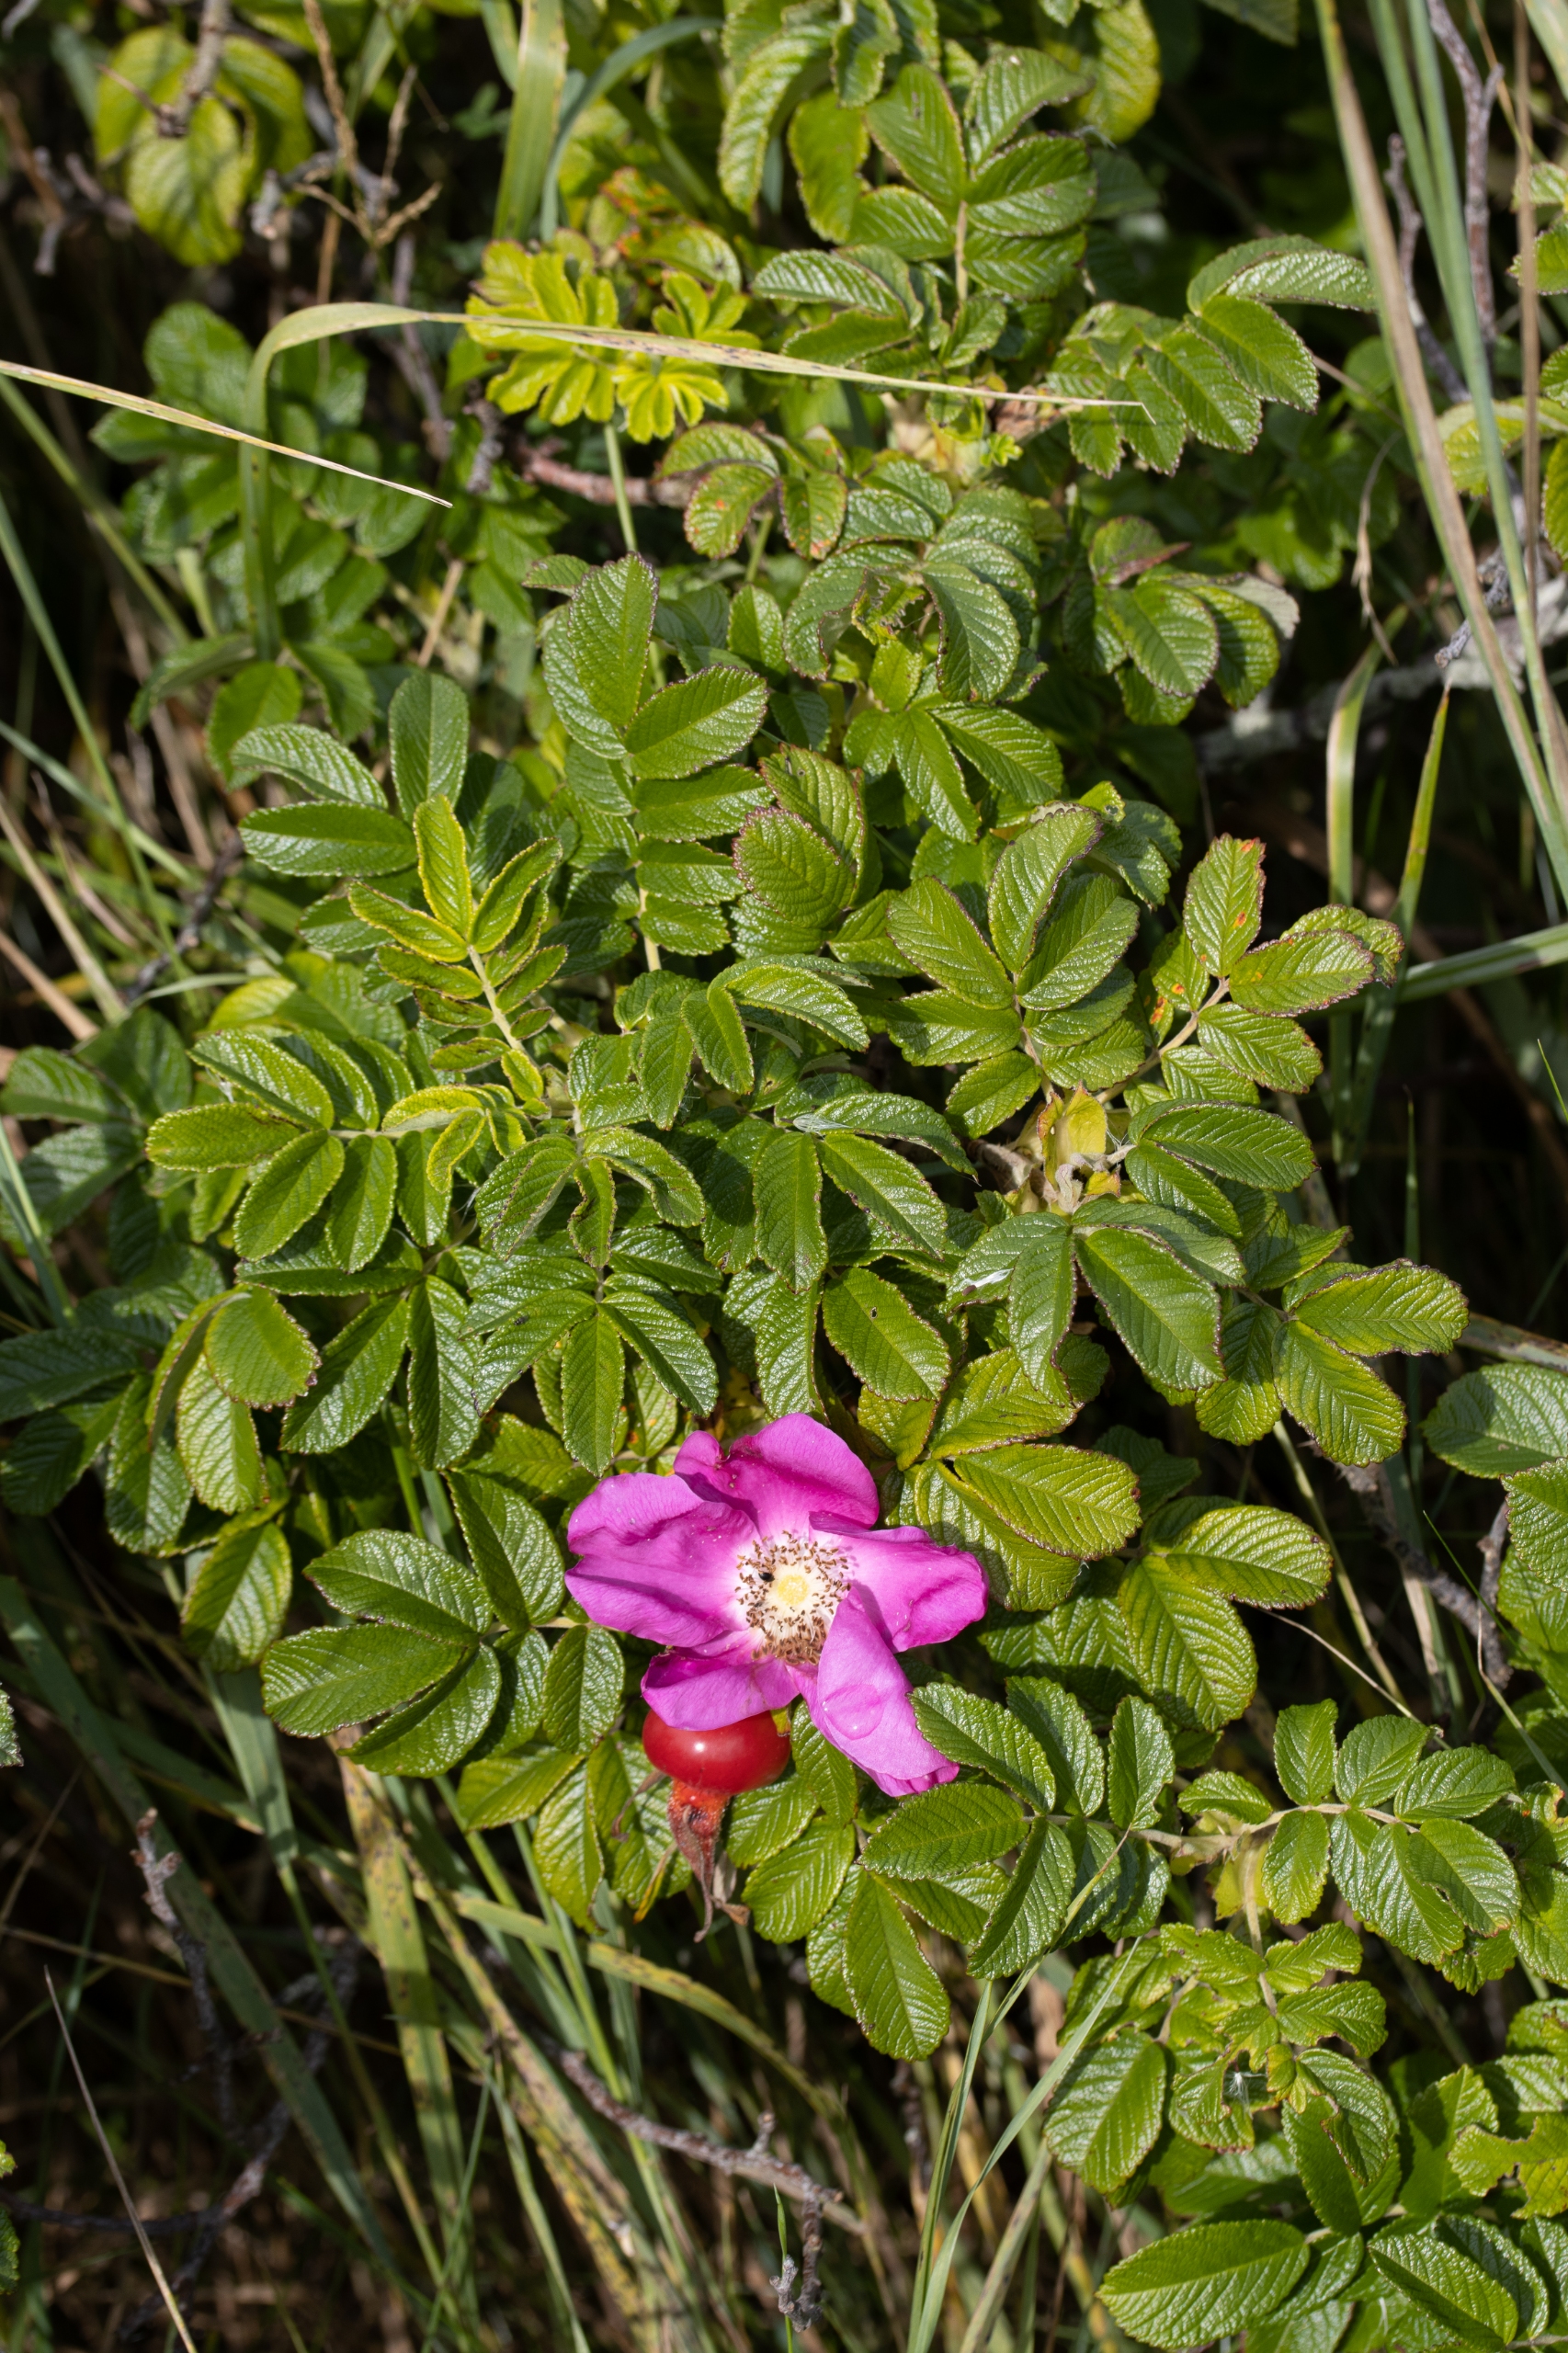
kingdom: Plantae
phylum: Tracheophyta
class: Magnoliopsida
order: Rosales
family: Rosaceae
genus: Rosa
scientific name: Rosa rugosa
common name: Rynket rose
